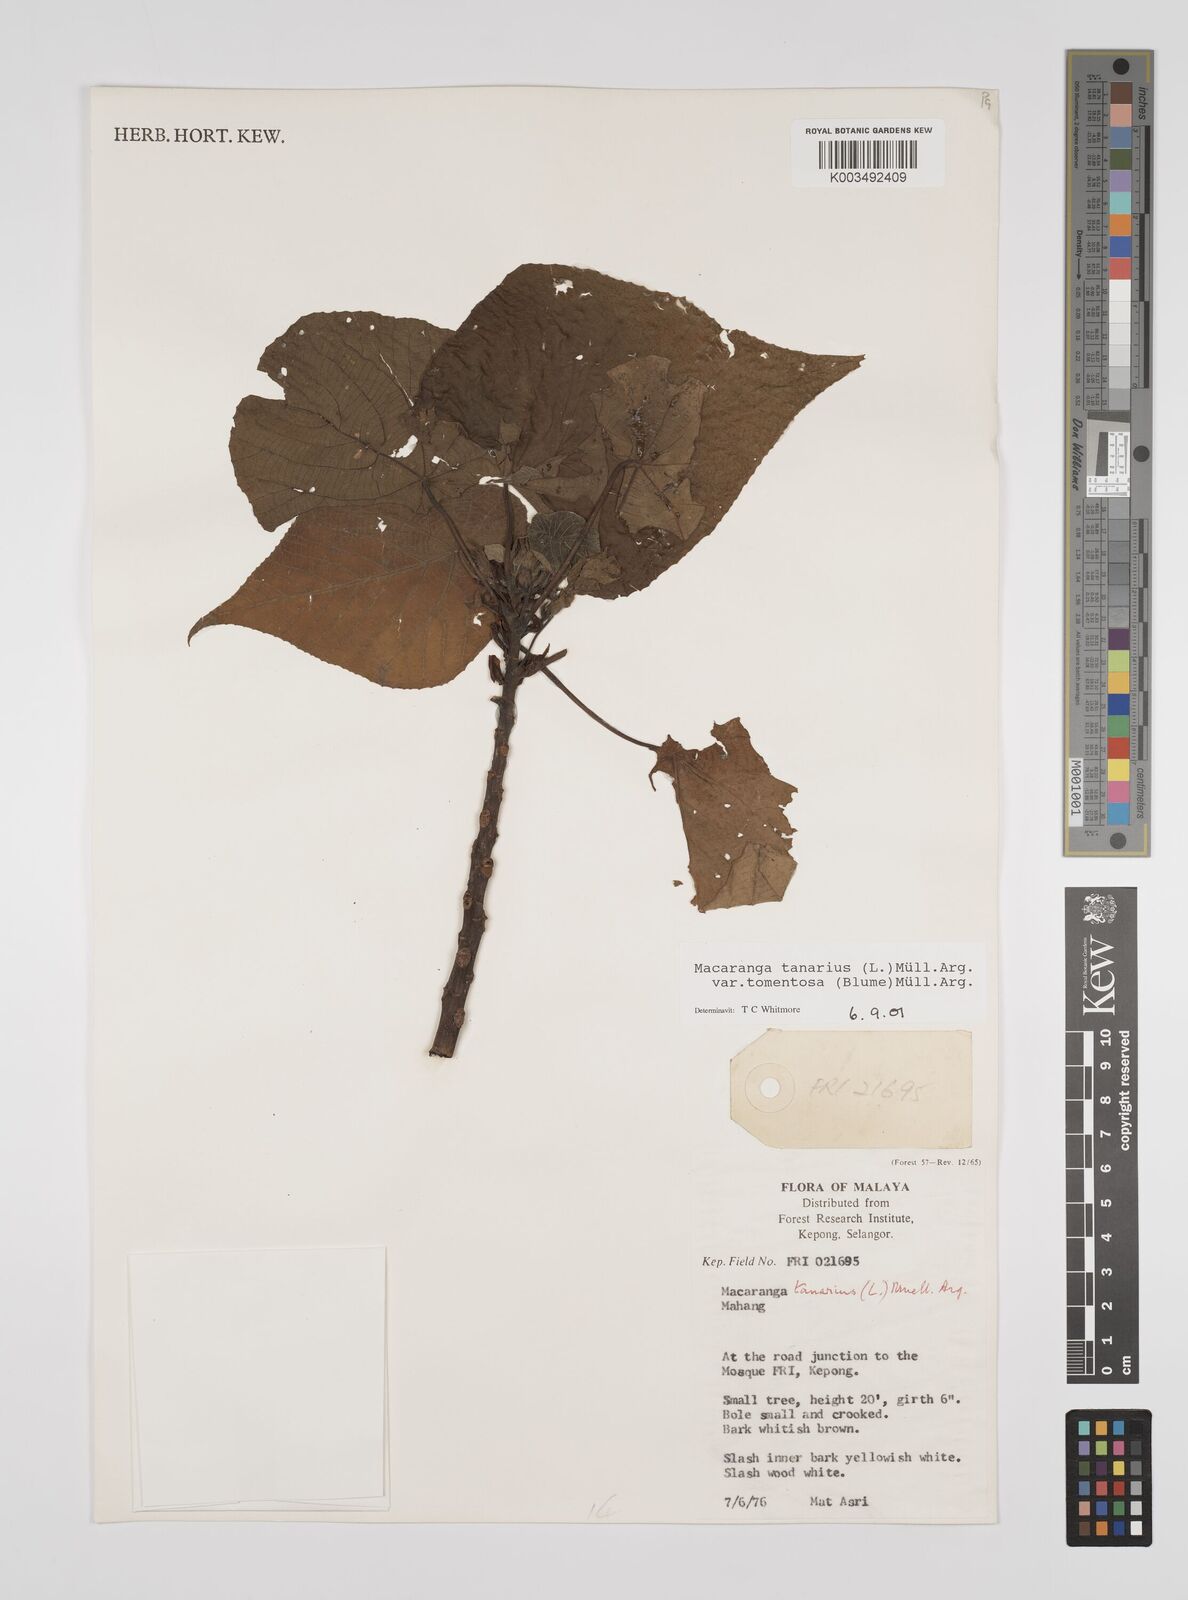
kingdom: Plantae
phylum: Tracheophyta
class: Magnoliopsida
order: Malpighiales
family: Euphorbiaceae
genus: Macaranga
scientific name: Macaranga tanarius
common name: Parasol leaf tree
